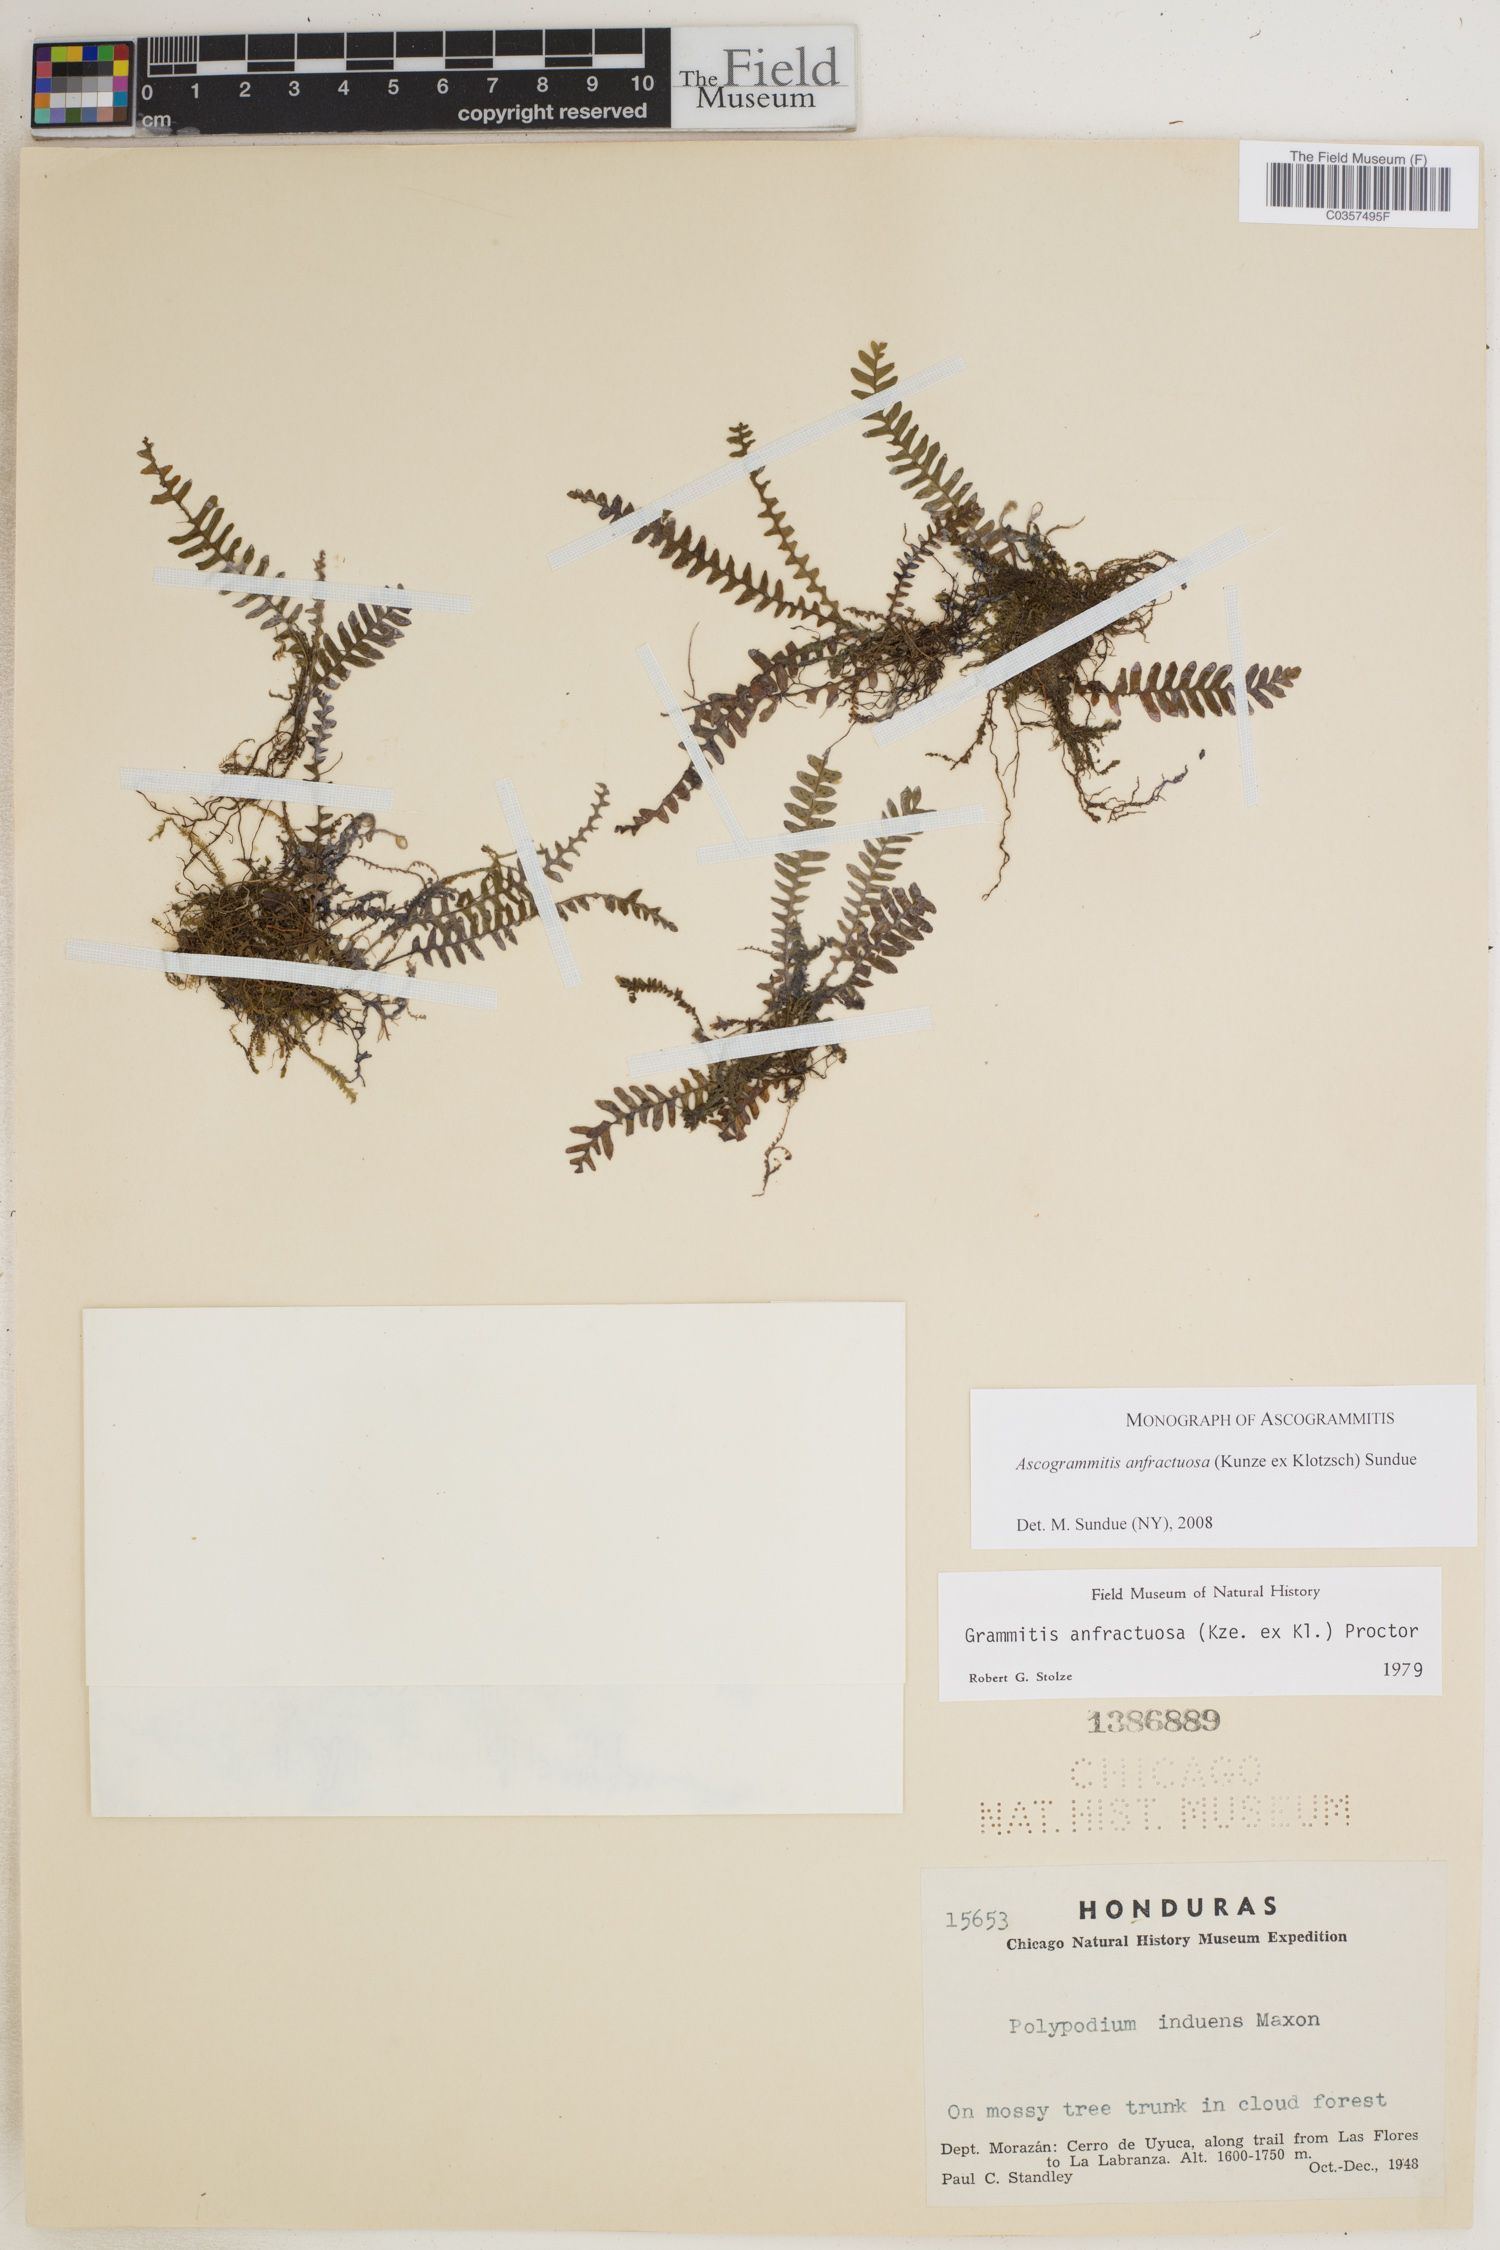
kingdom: Plantae
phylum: Tracheophyta
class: Polypodiopsida
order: Polypodiales
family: Polypodiaceae
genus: Ascogrammitis
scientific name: Ascogrammitis anfractuosa
